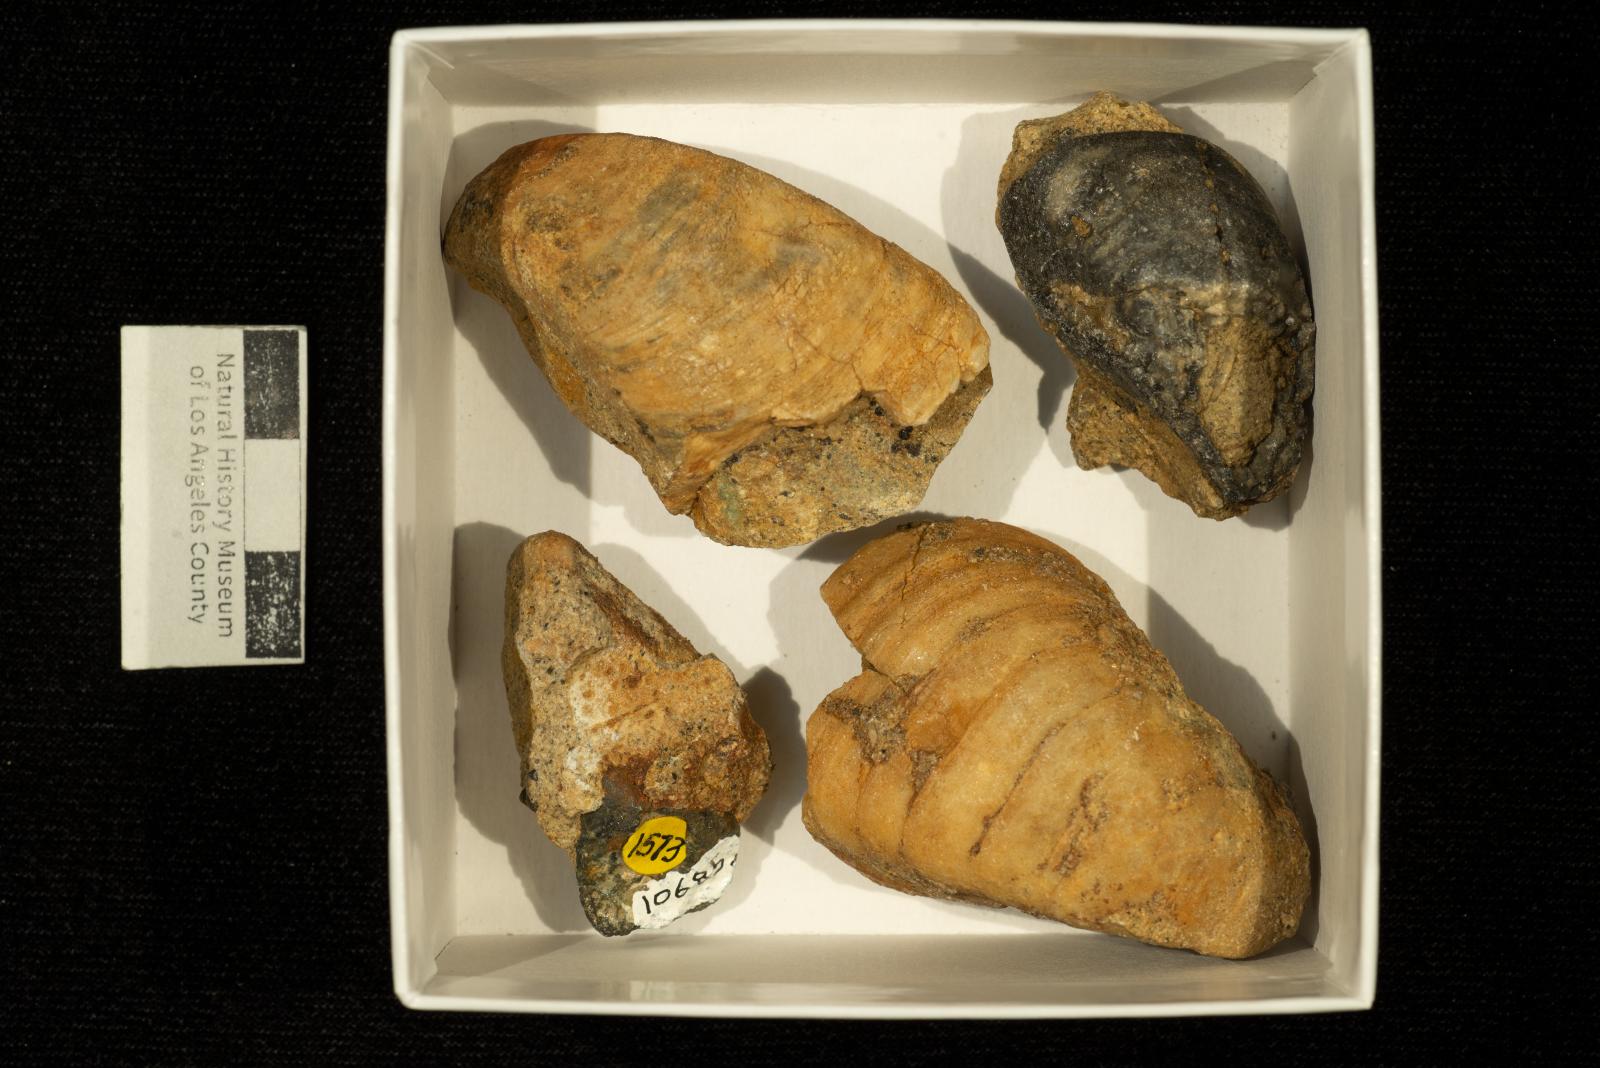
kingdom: Animalia
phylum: Mollusca
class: Bivalvia
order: Carditida
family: Astartidae
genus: Opis
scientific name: Opis Corbula triangulata
